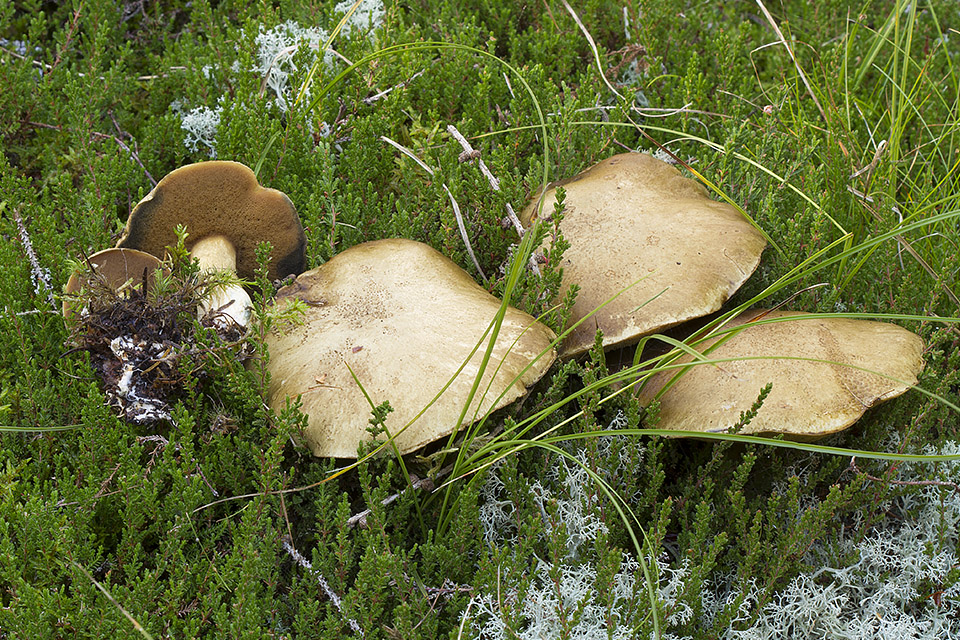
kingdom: Fungi
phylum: Basidiomycota
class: Agaricomycetes
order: Boletales
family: Suillaceae
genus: Suillus
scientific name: Suillus variegatus
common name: broget slimrørhat
